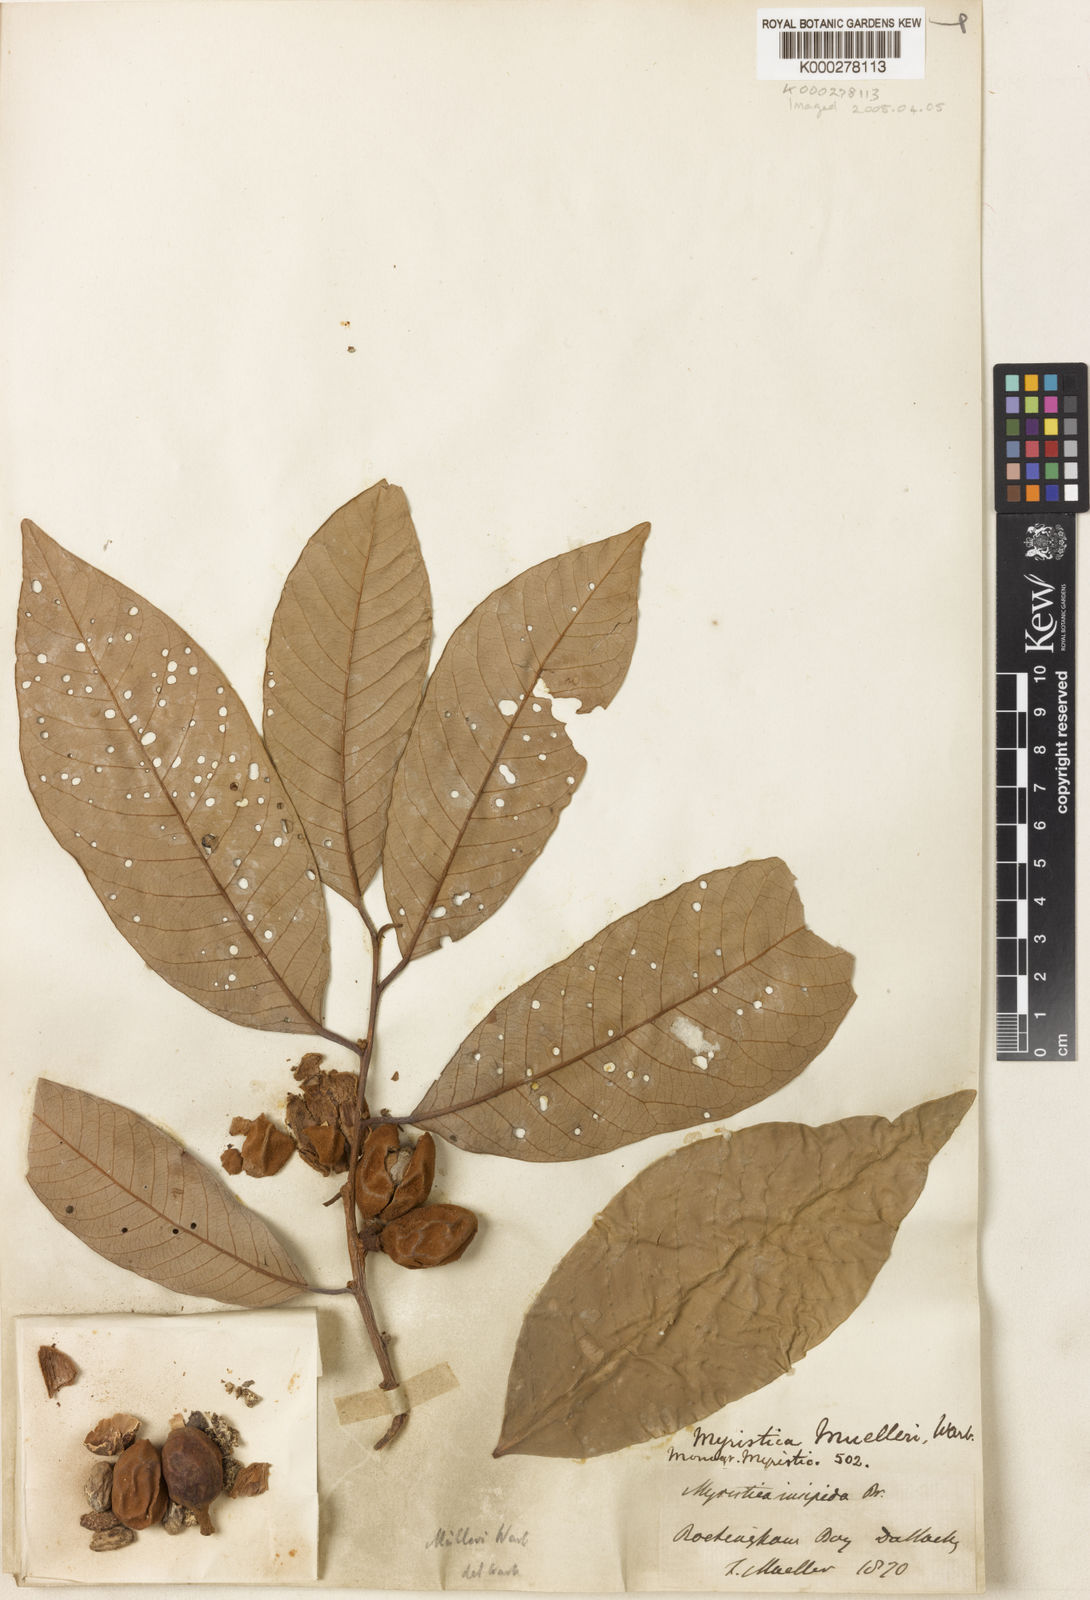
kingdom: Plantae
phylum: Tracheophyta
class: Magnoliopsida
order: Magnoliales
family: Myristicaceae
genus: Myristica
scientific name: Myristica insipida
